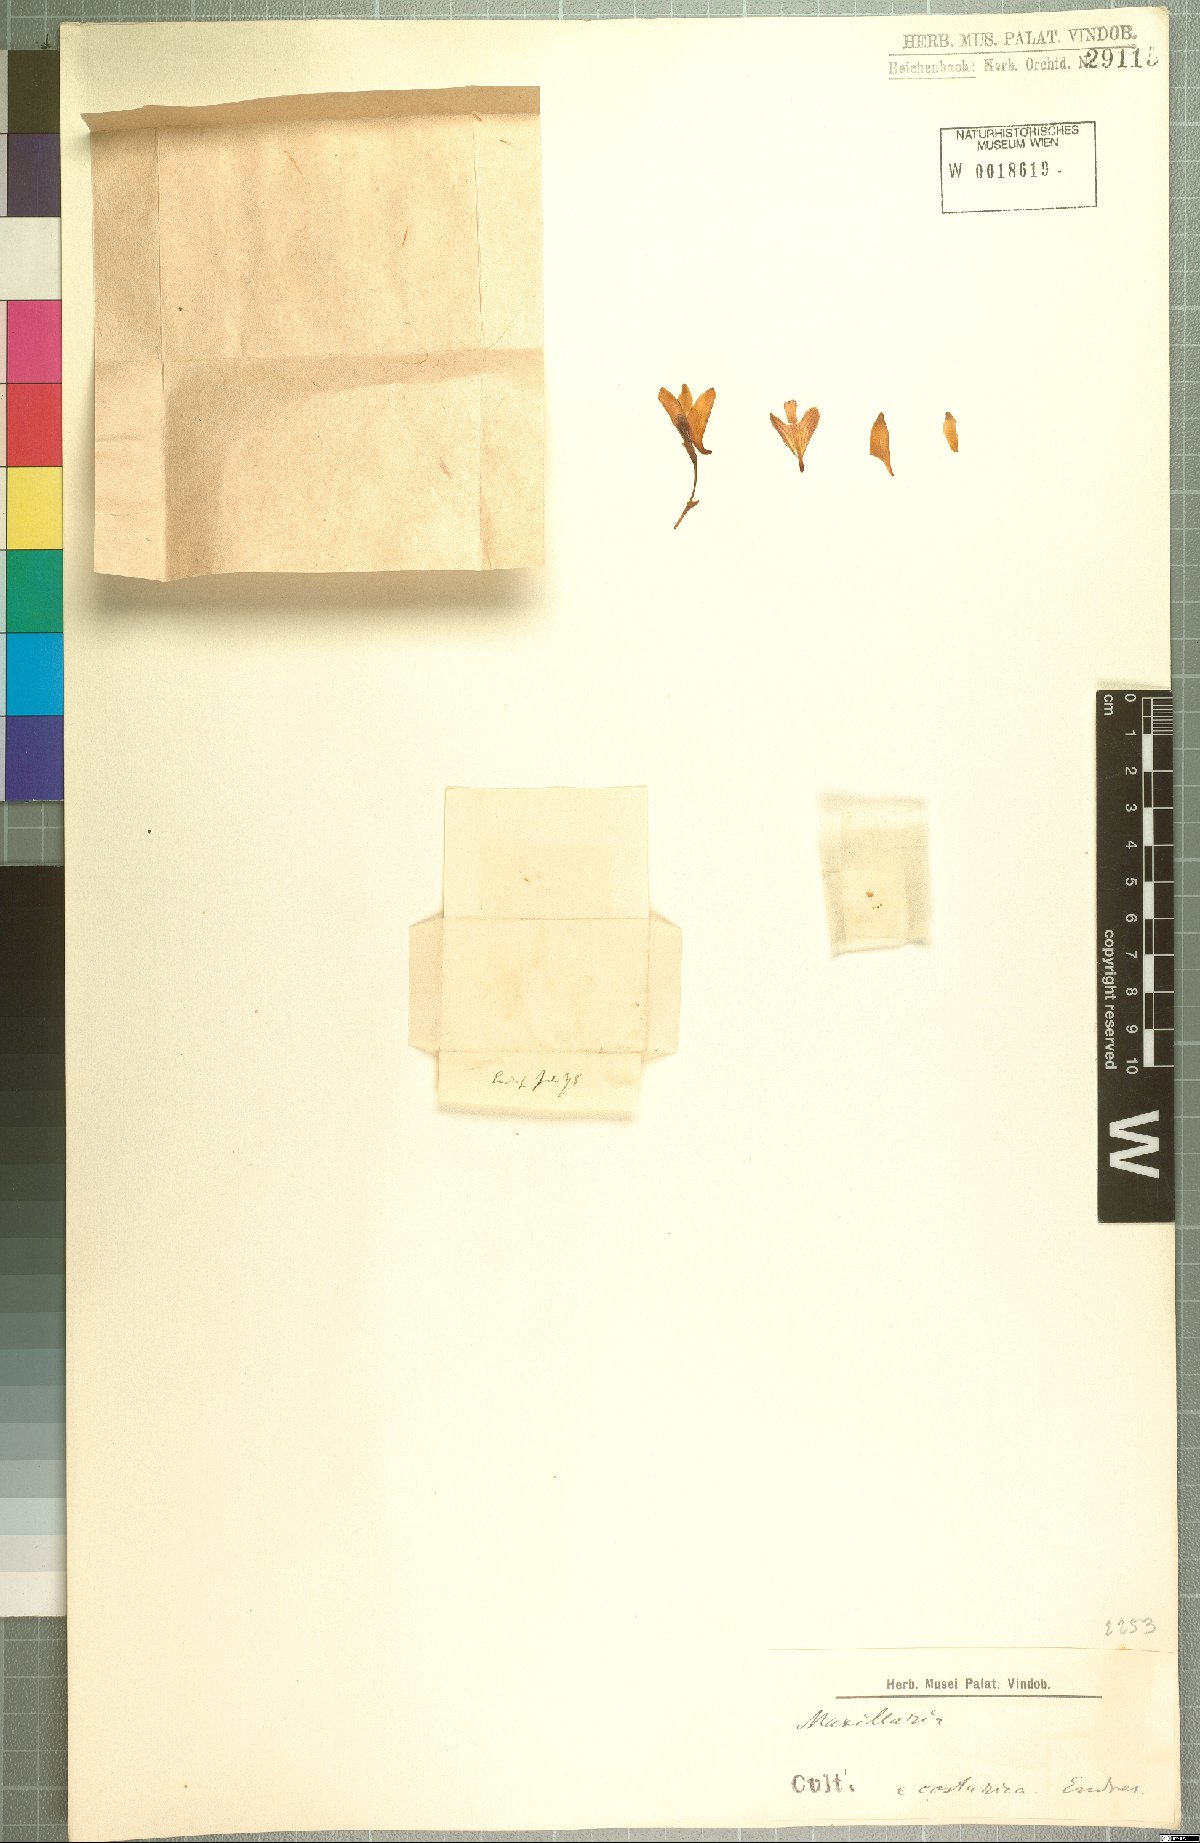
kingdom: Plantae
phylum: Tracheophyta
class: Liliopsida
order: Asparagales
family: Orchidaceae
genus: Maxillaria
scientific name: Maxillaria
